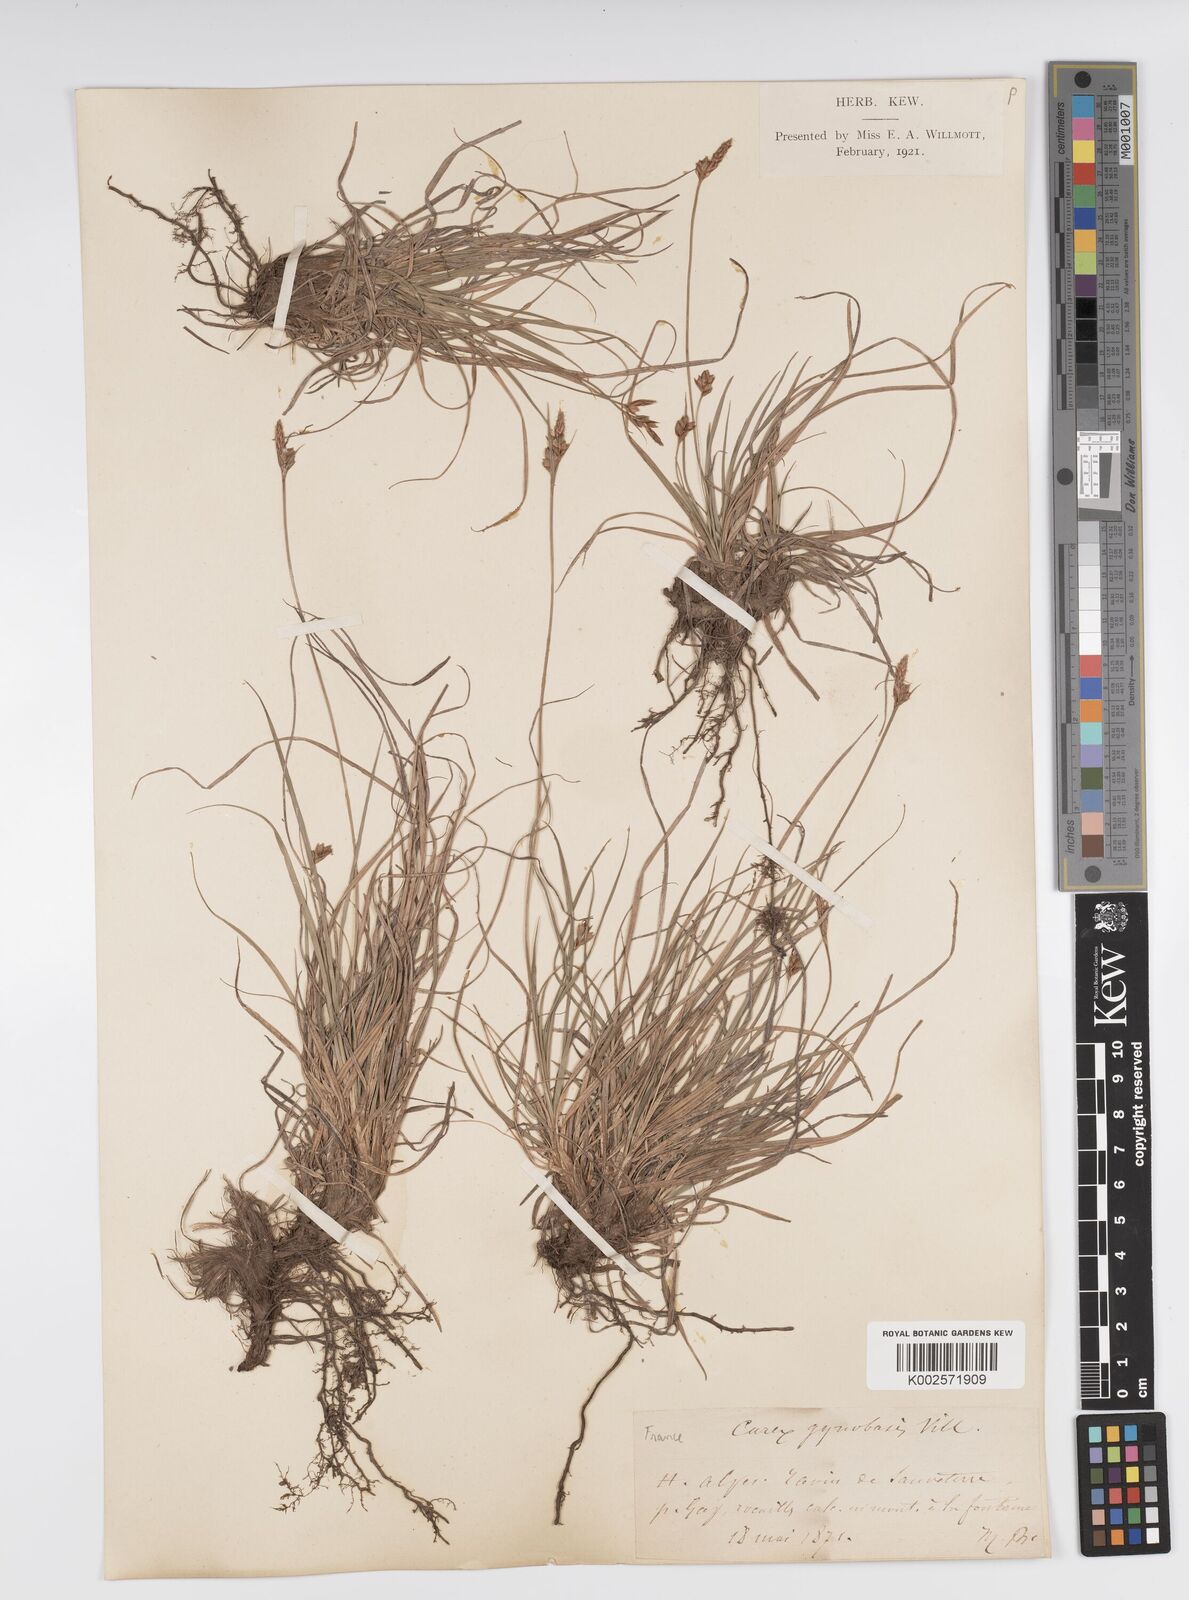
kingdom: Plantae
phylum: Tracheophyta
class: Liliopsida
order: Poales
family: Cyperaceae
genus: Carex
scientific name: Carex halleriana
